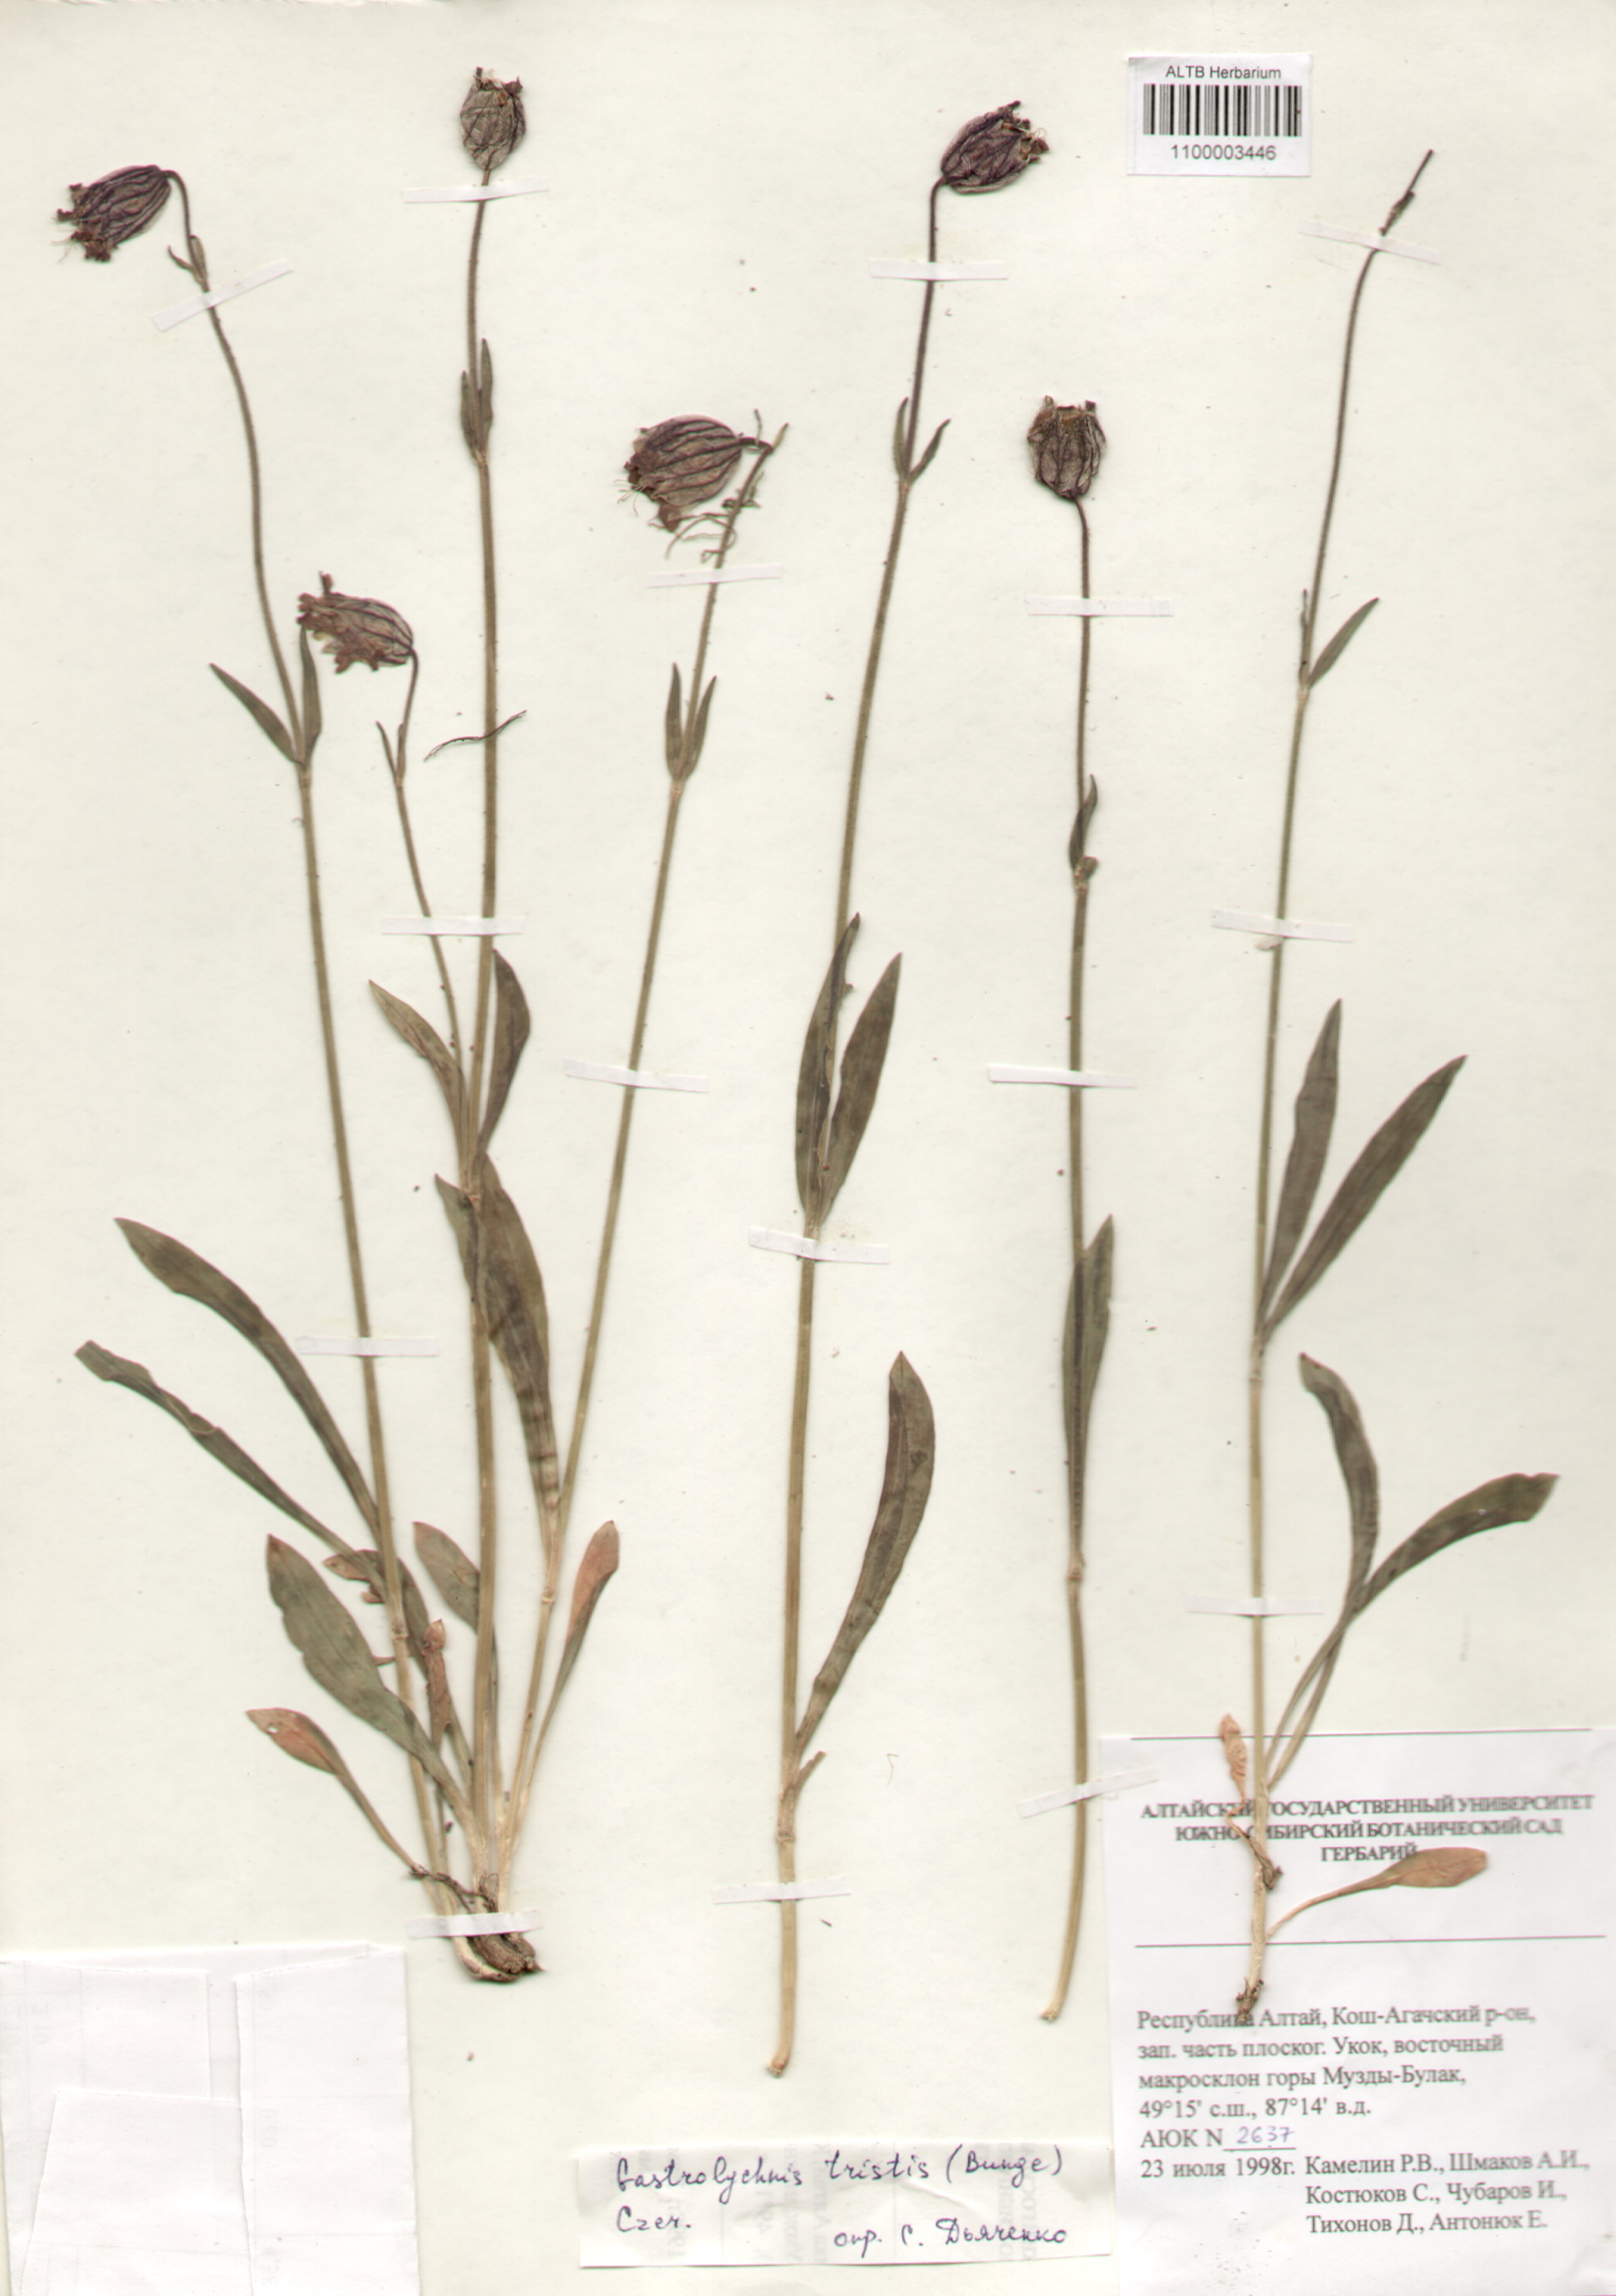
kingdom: Plantae
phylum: Tracheophyta
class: Magnoliopsida
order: Caryophyllales
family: Caryophyllaceae
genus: Silene
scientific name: Silene bungei
